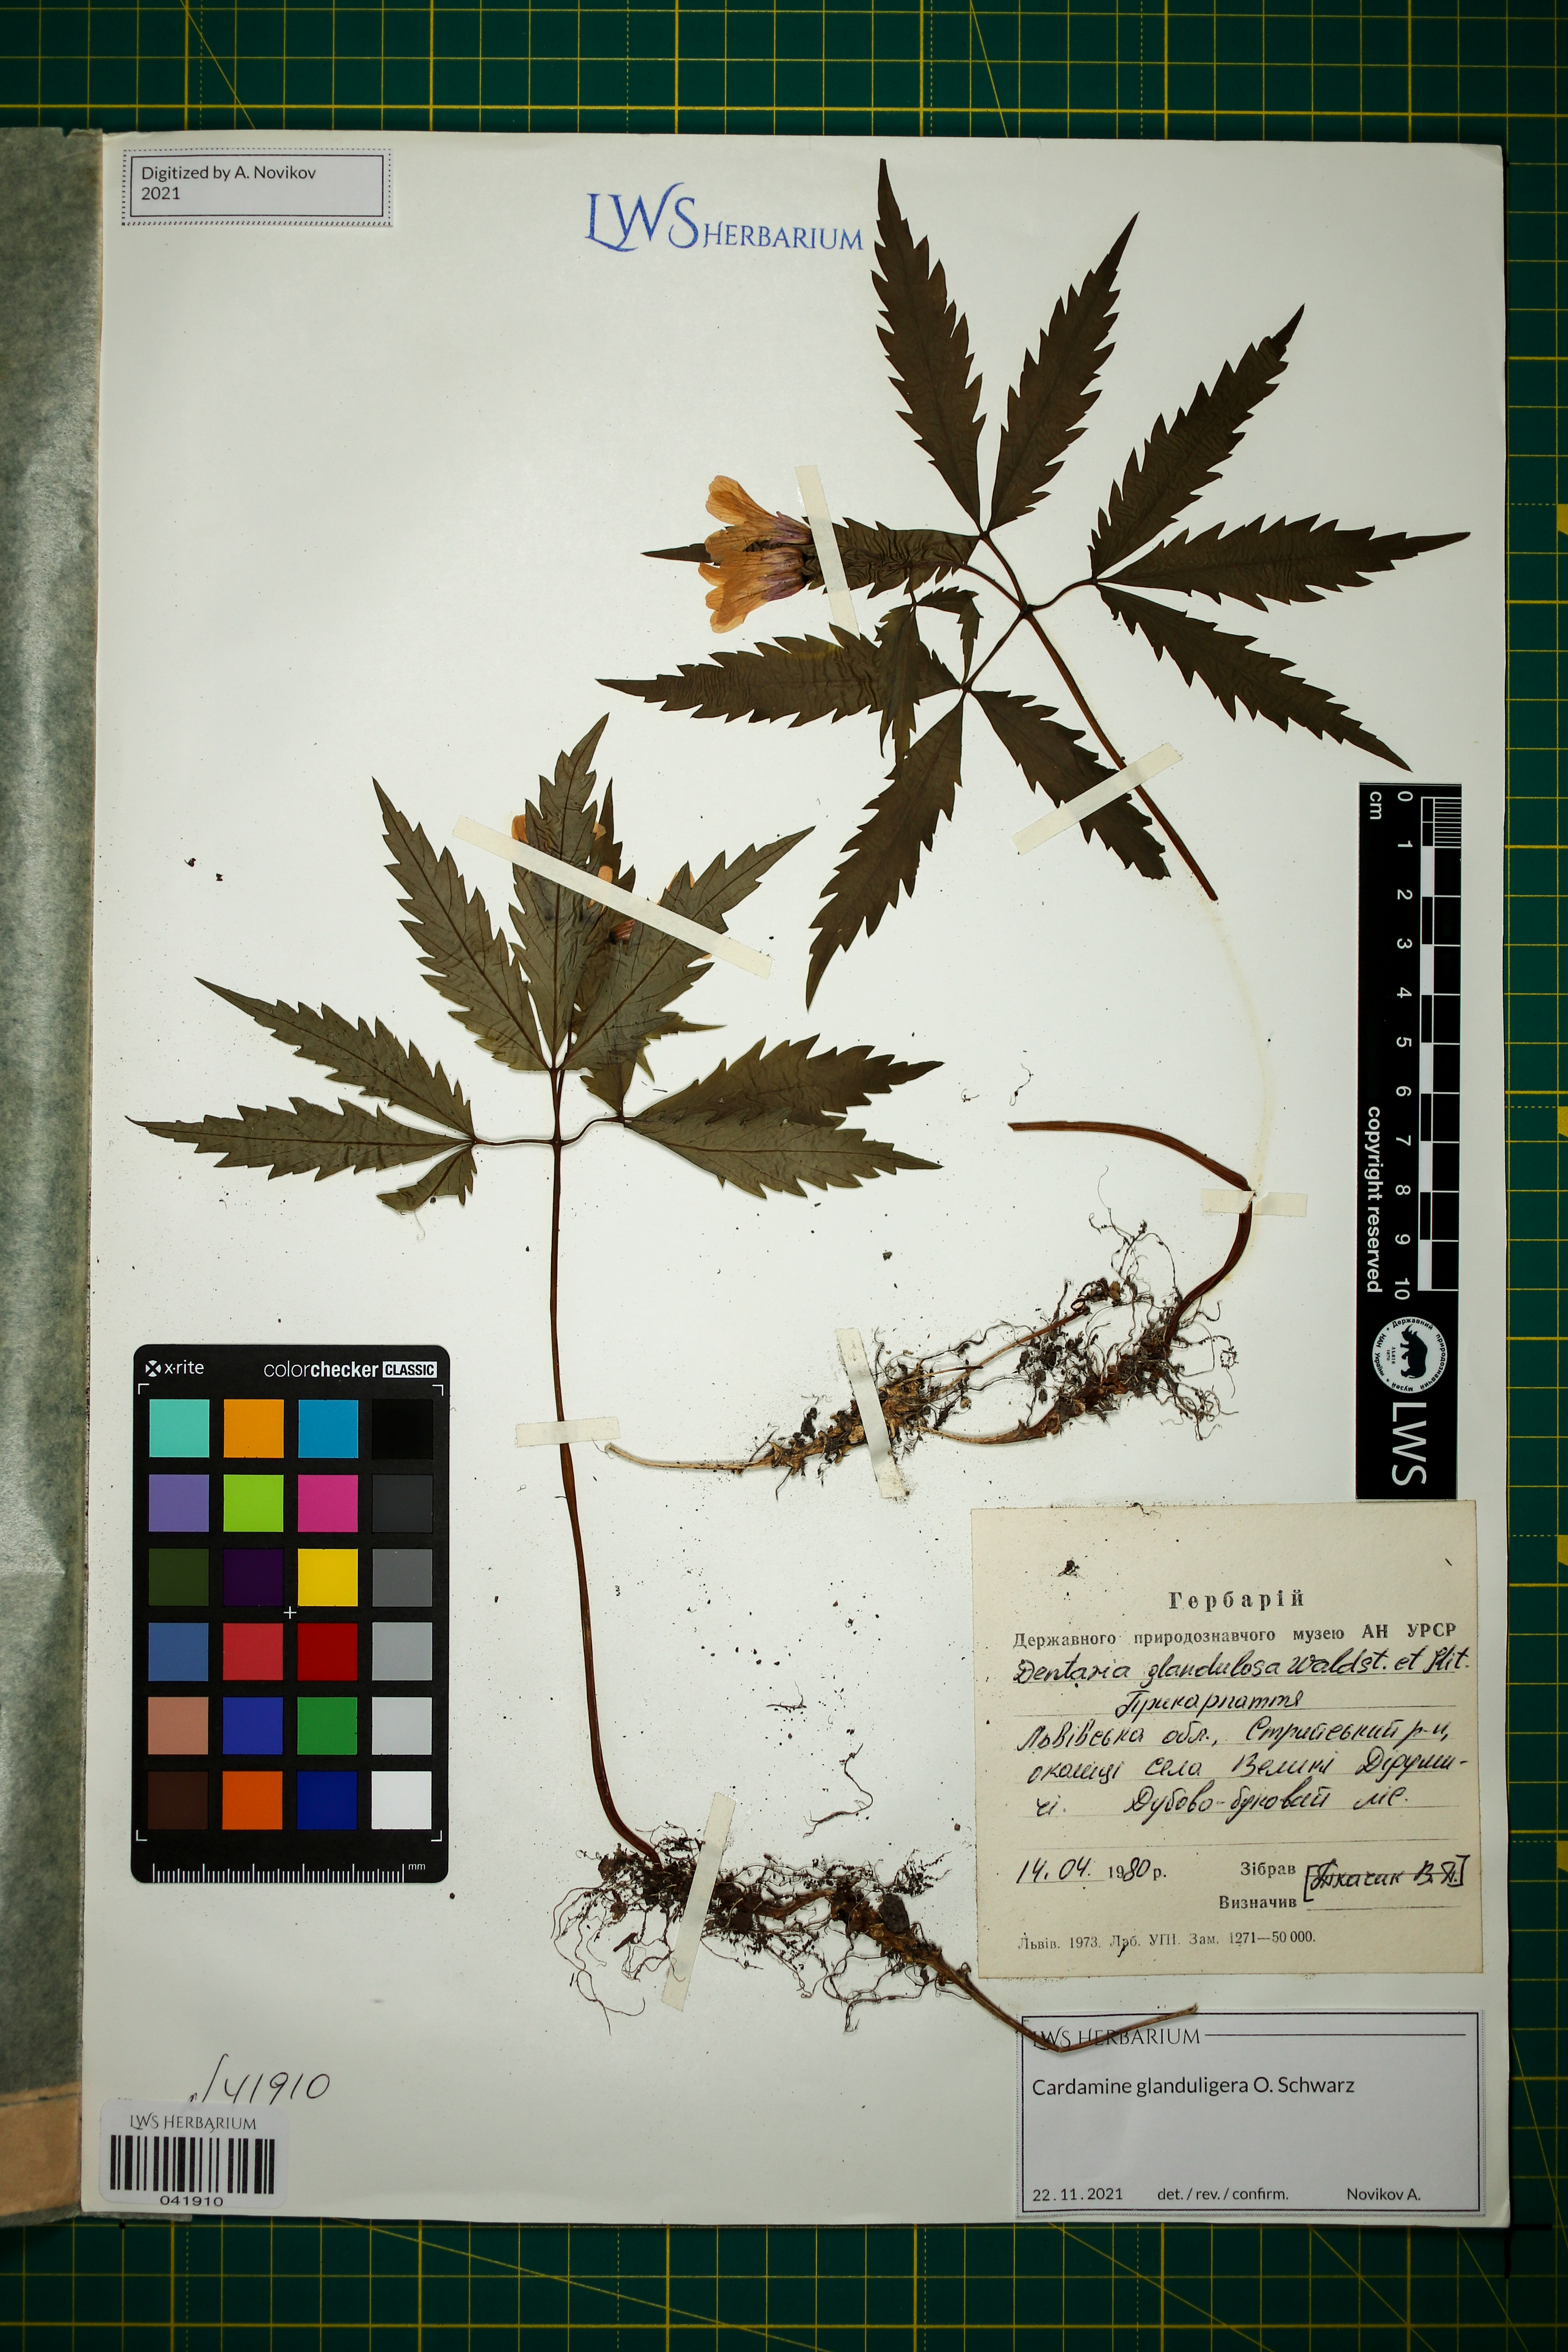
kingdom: Plantae
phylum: Tracheophyta
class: Magnoliopsida
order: Brassicales
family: Brassicaceae
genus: Cardamine
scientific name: Cardamine glanduligera
